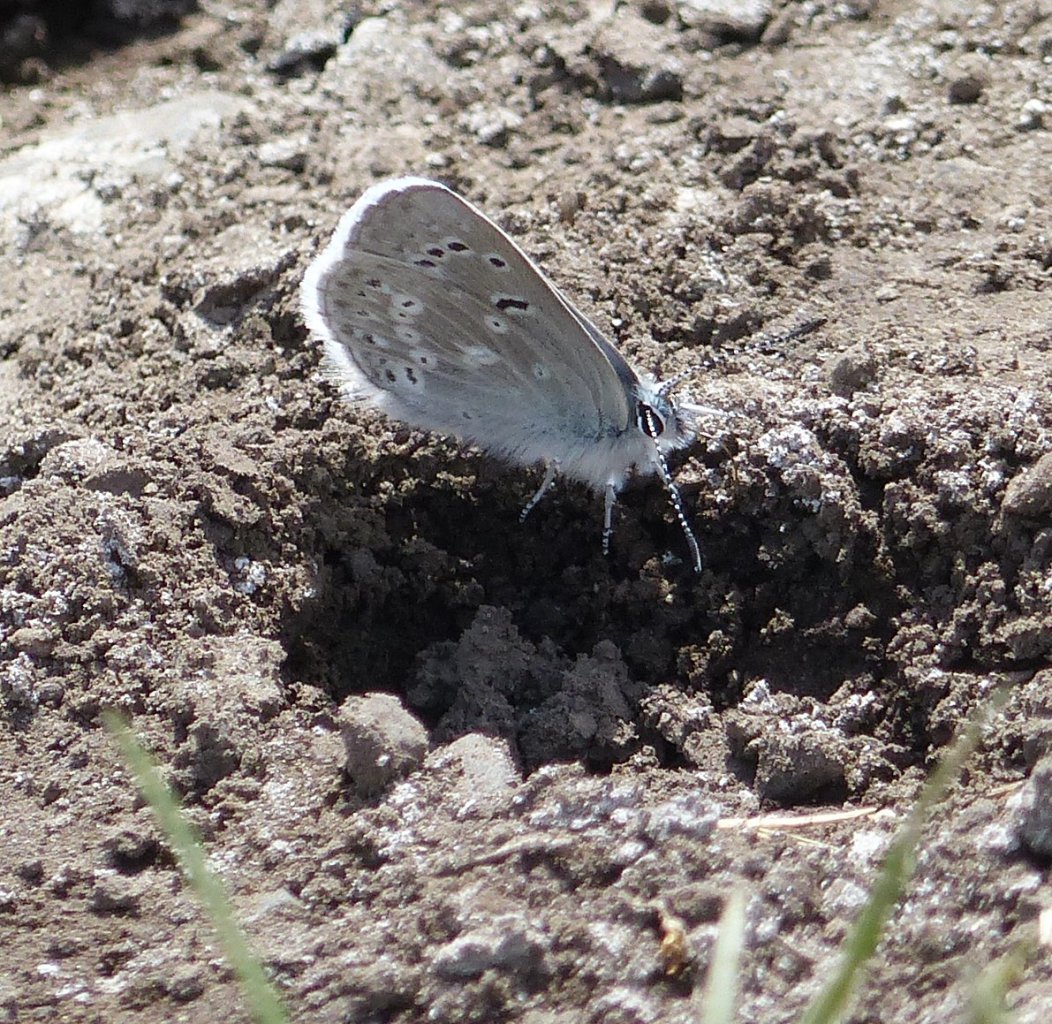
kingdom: Animalia
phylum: Arthropoda
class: Insecta
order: Lepidoptera
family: Lycaenidae
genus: Icaricia
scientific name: Icaricia icarioides
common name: Boisduval's Blue
